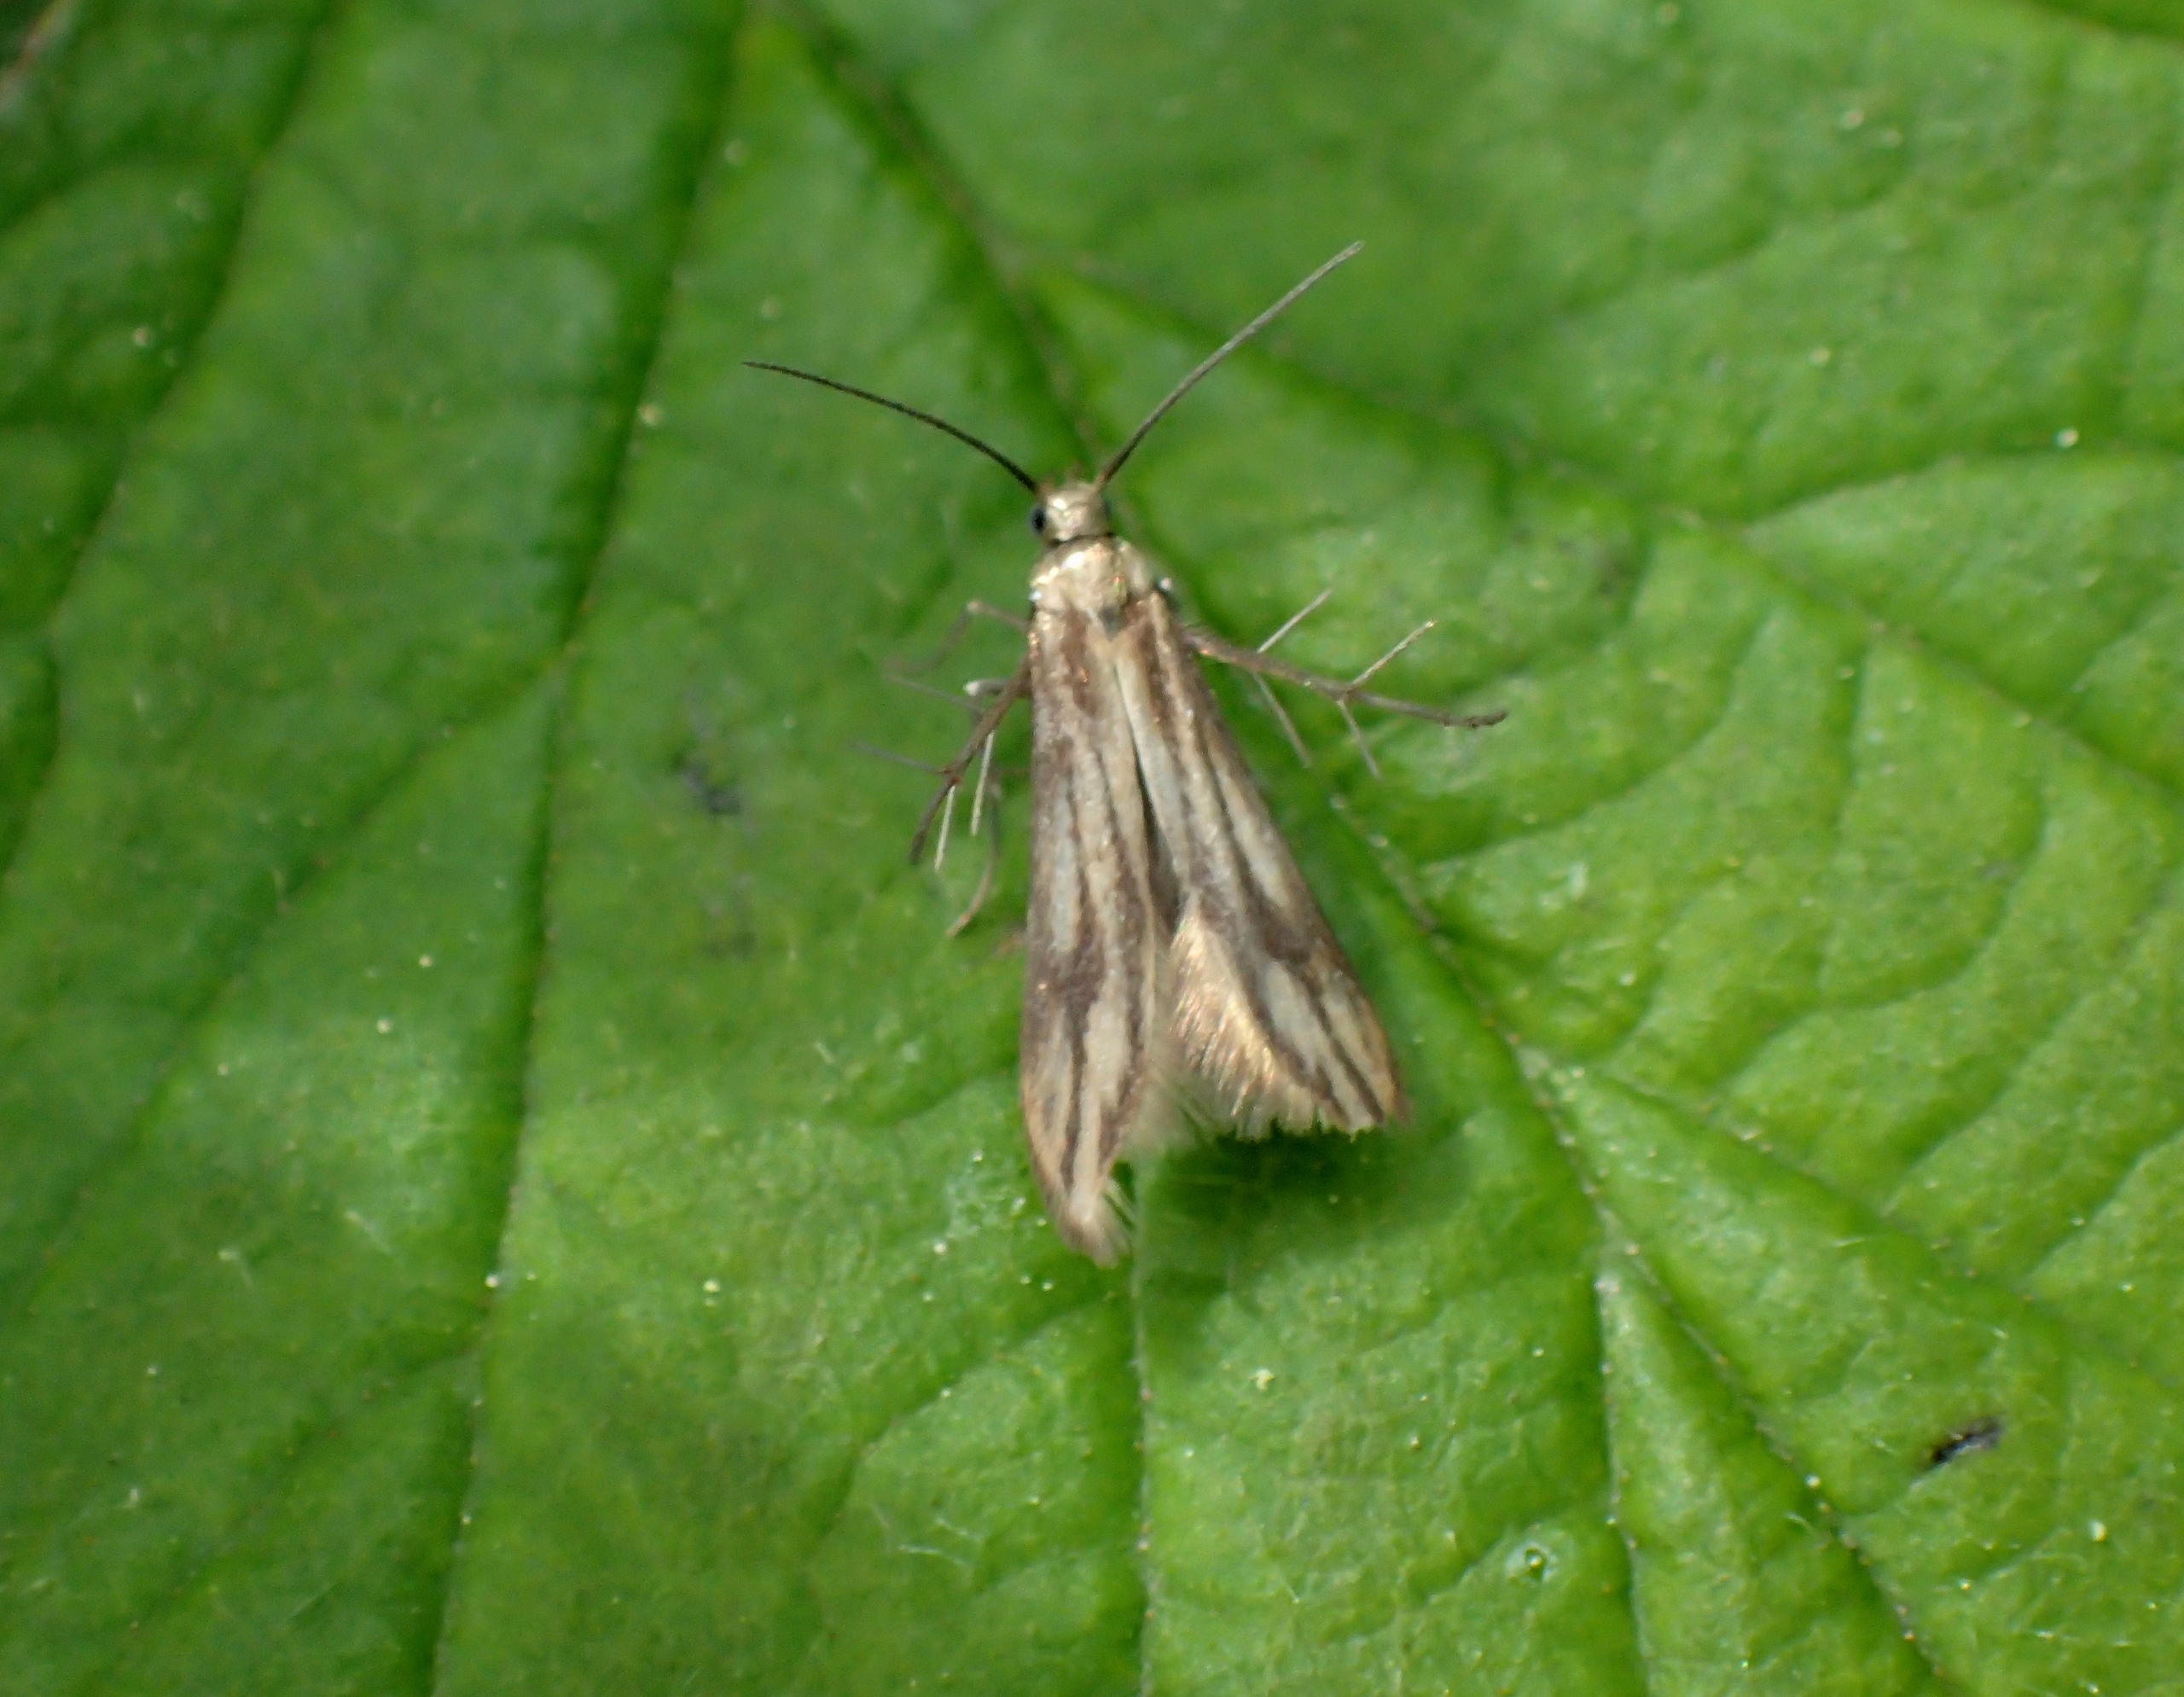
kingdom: Animalia
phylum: Arthropoda
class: Insecta
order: Lepidoptera
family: Schreckensteiniidae
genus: Schreckensteinia
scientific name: Schreckensteinia festaliella
